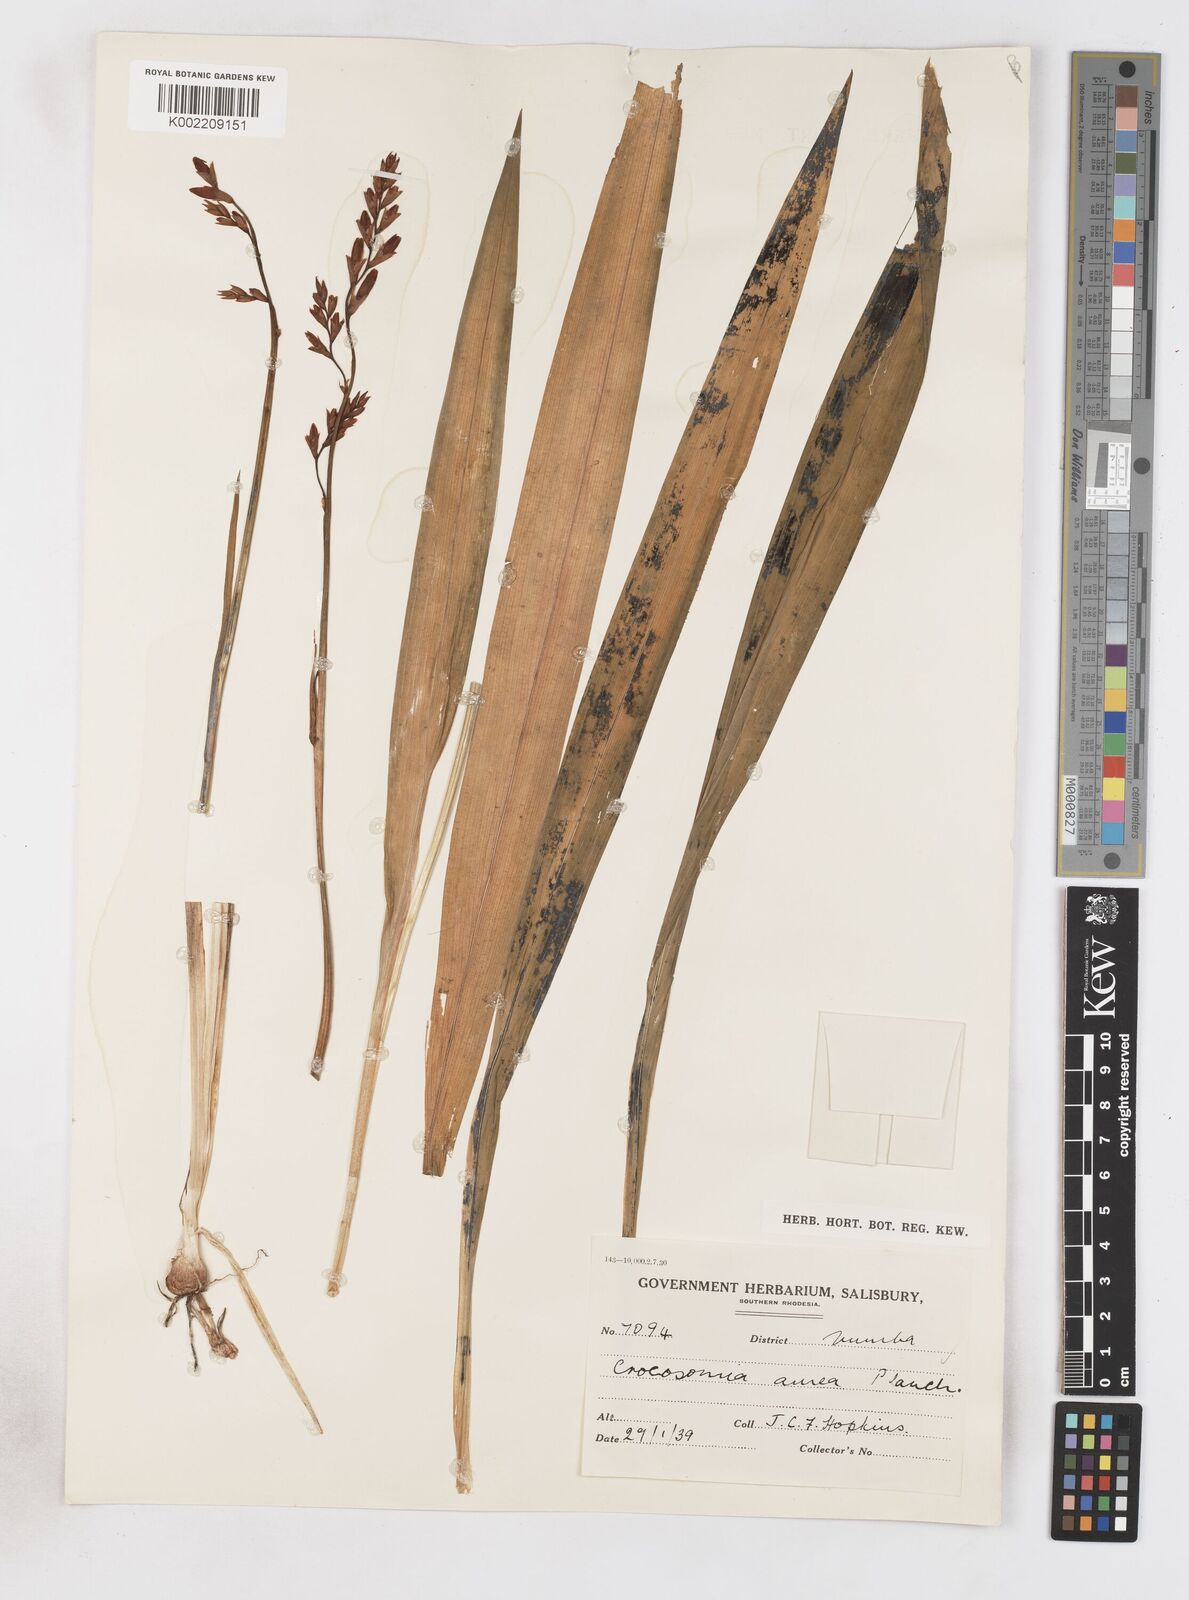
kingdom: Plantae
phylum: Tracheophyta
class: Liliopsida
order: Asparagales
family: Iridaceae
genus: Crocosmia
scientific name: Crocosmia aurea
